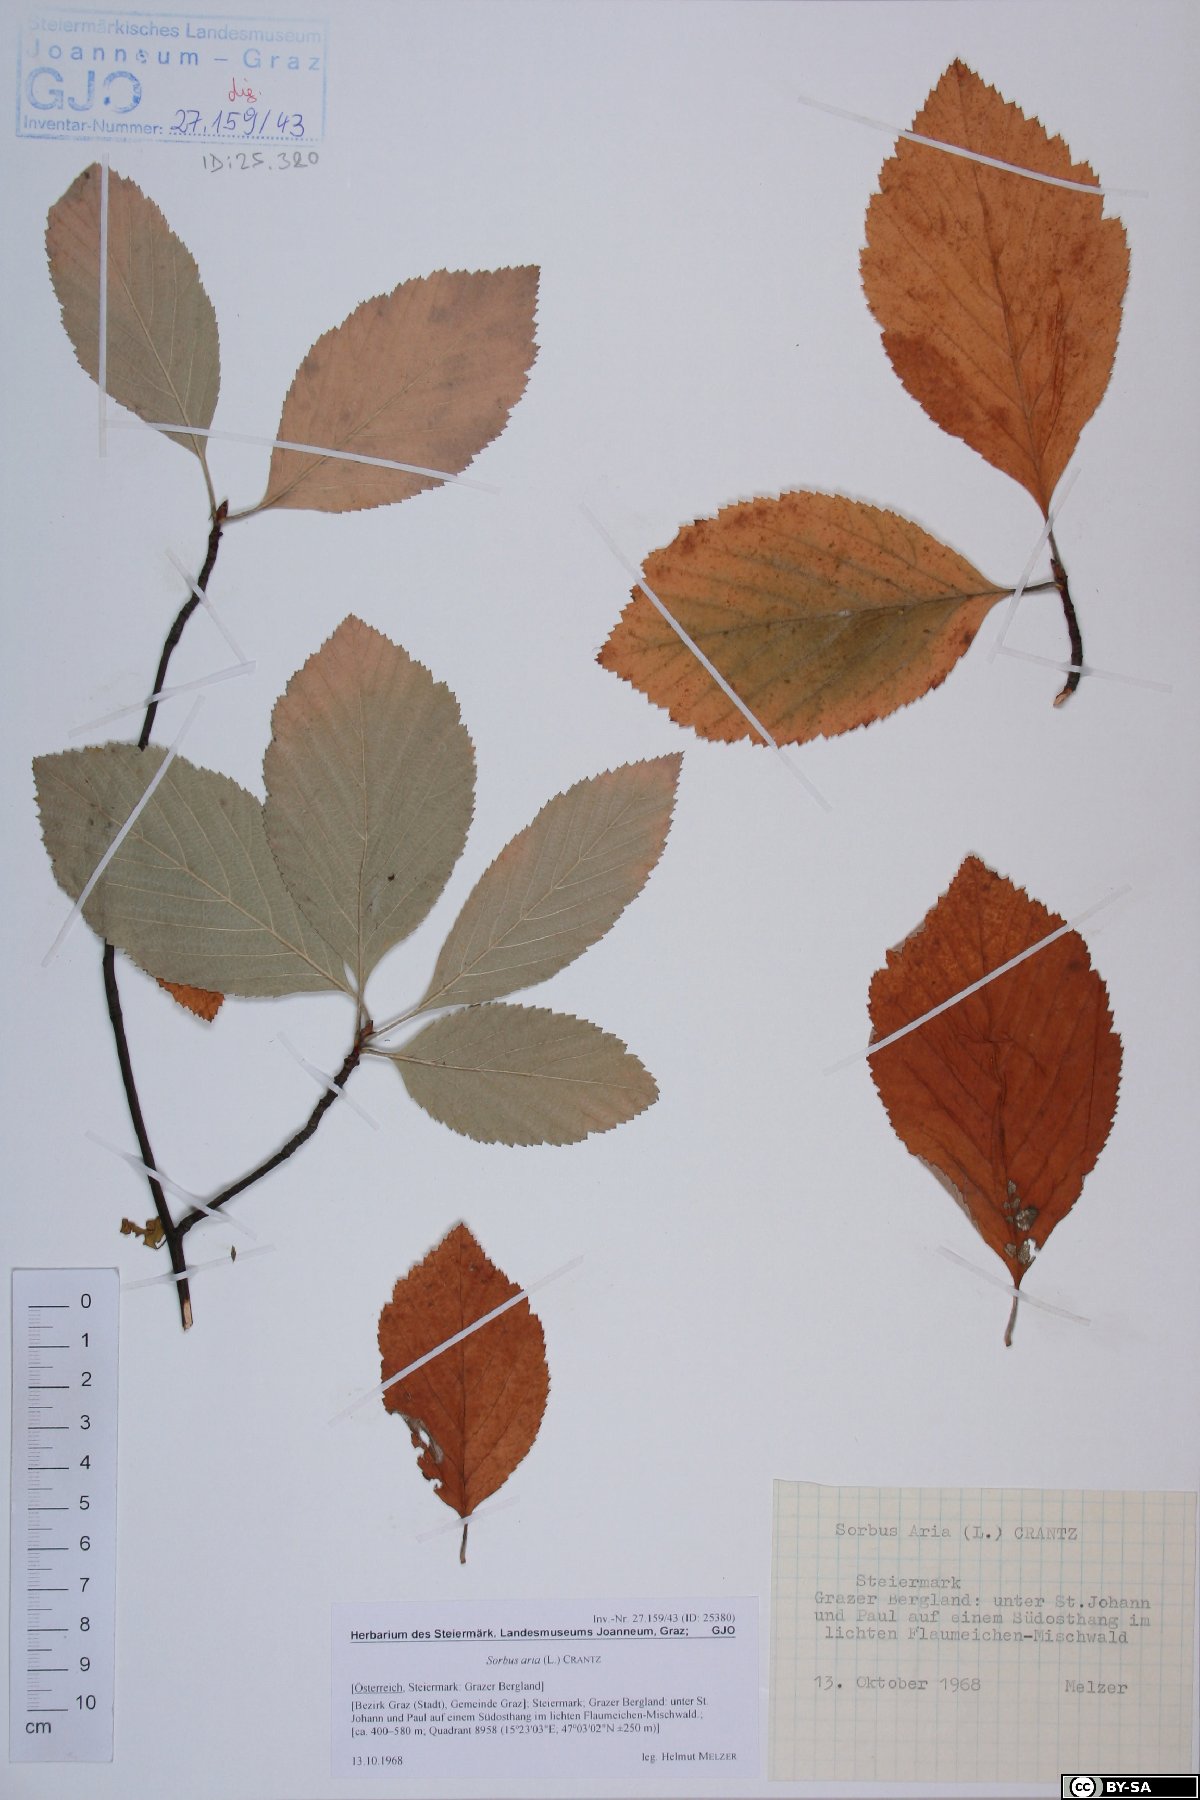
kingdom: Plantae
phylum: Tracheophyta
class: Magnoliopsida
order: Rosales
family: Rosaceae
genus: Aria
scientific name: Aria edulis
